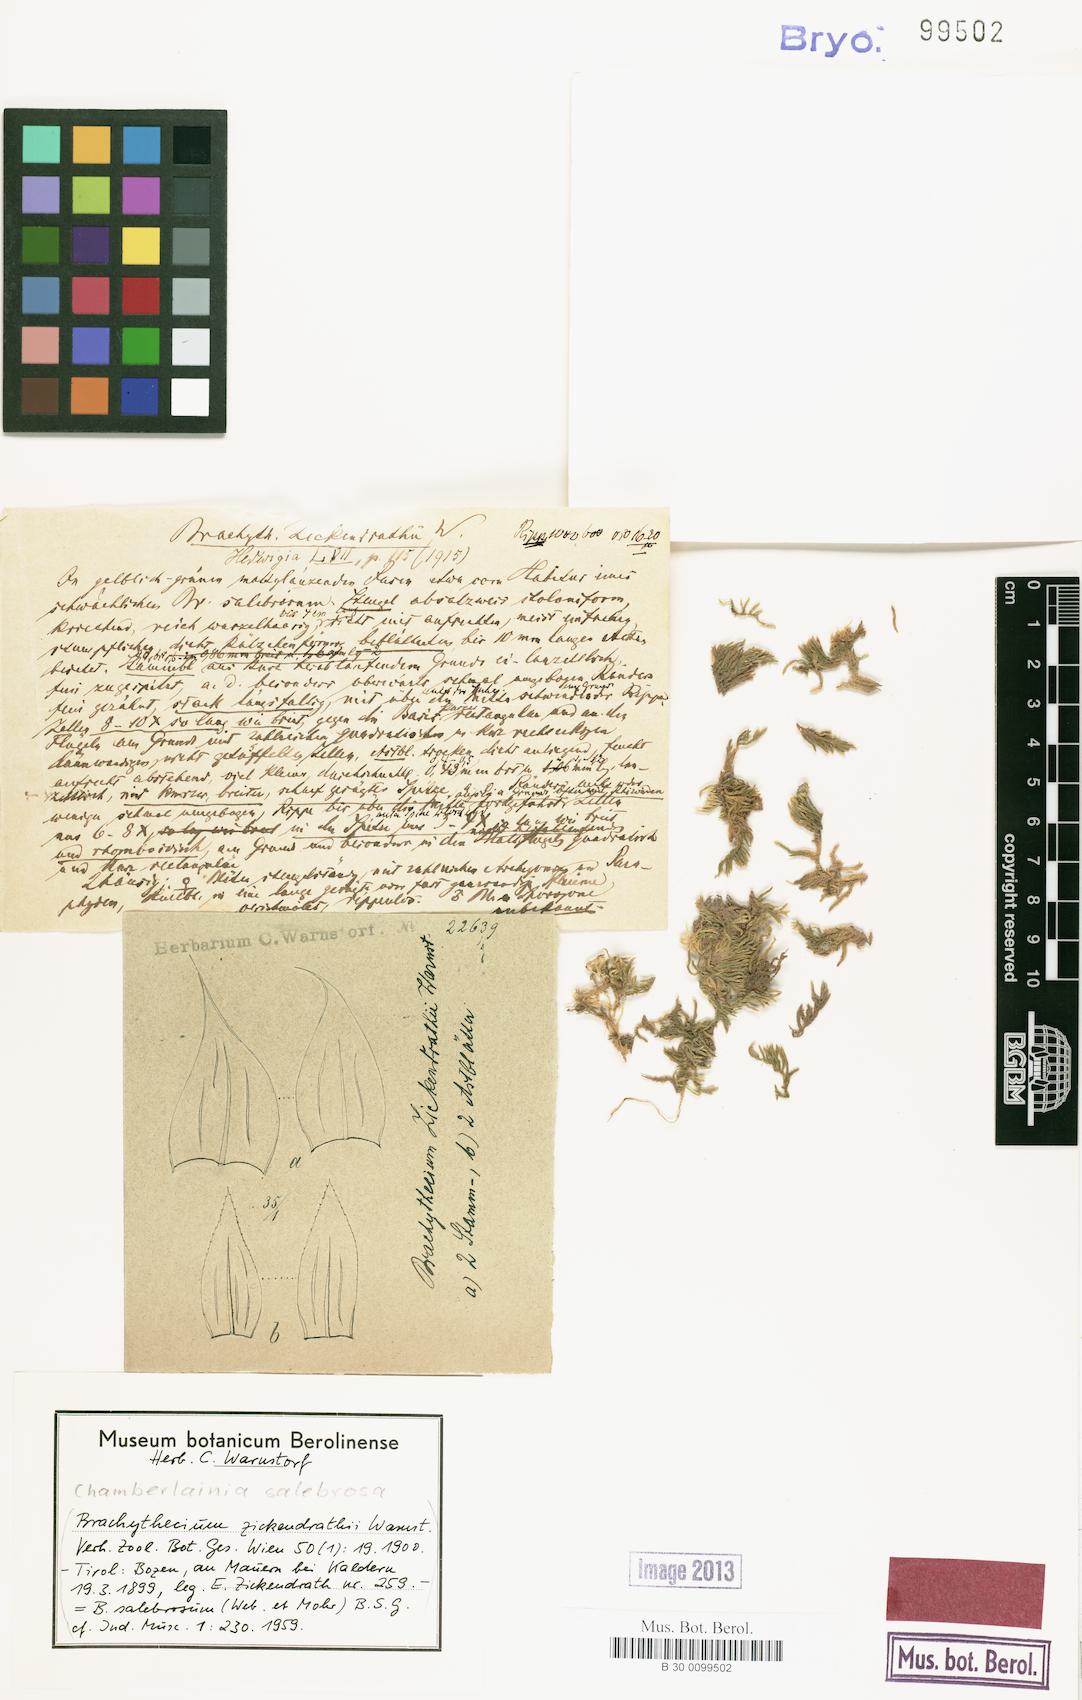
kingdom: Plantae
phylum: Bryophyta
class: Bryopsida
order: Hypnales
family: Brachytheciaceae
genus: Brachythecium
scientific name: Brachythecium salebrosum
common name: Smooth-stalk feather-moss
